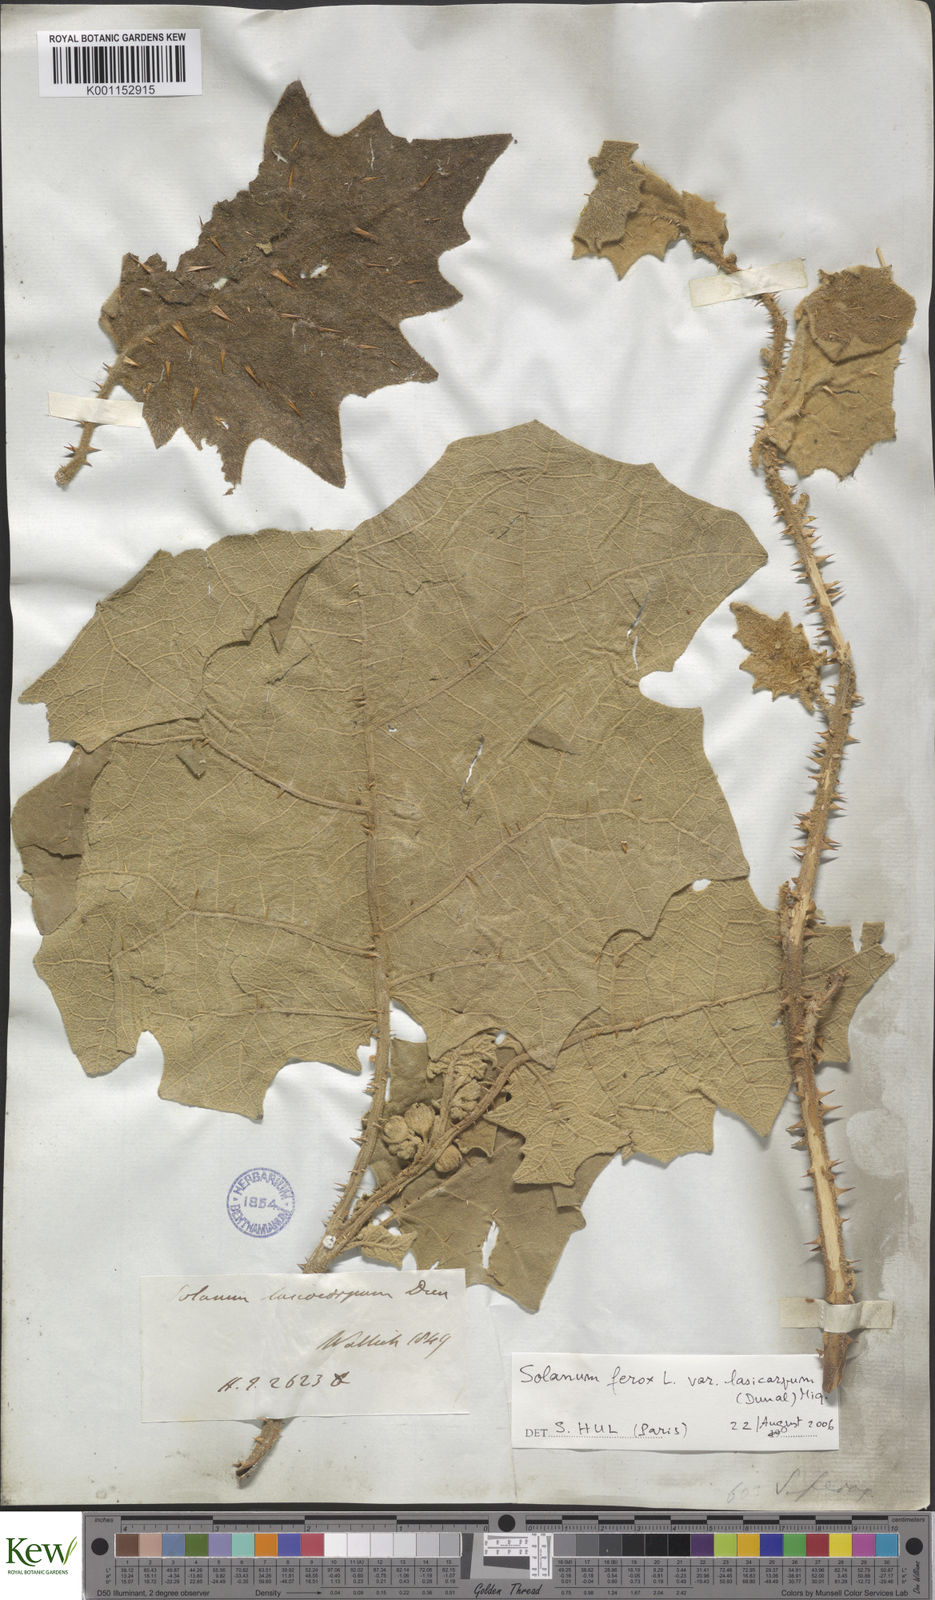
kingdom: Plantae
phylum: Tracheophyta
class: Magnoliopsida
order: Solanales
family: Solanaceae
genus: Solanum
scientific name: Solanum
